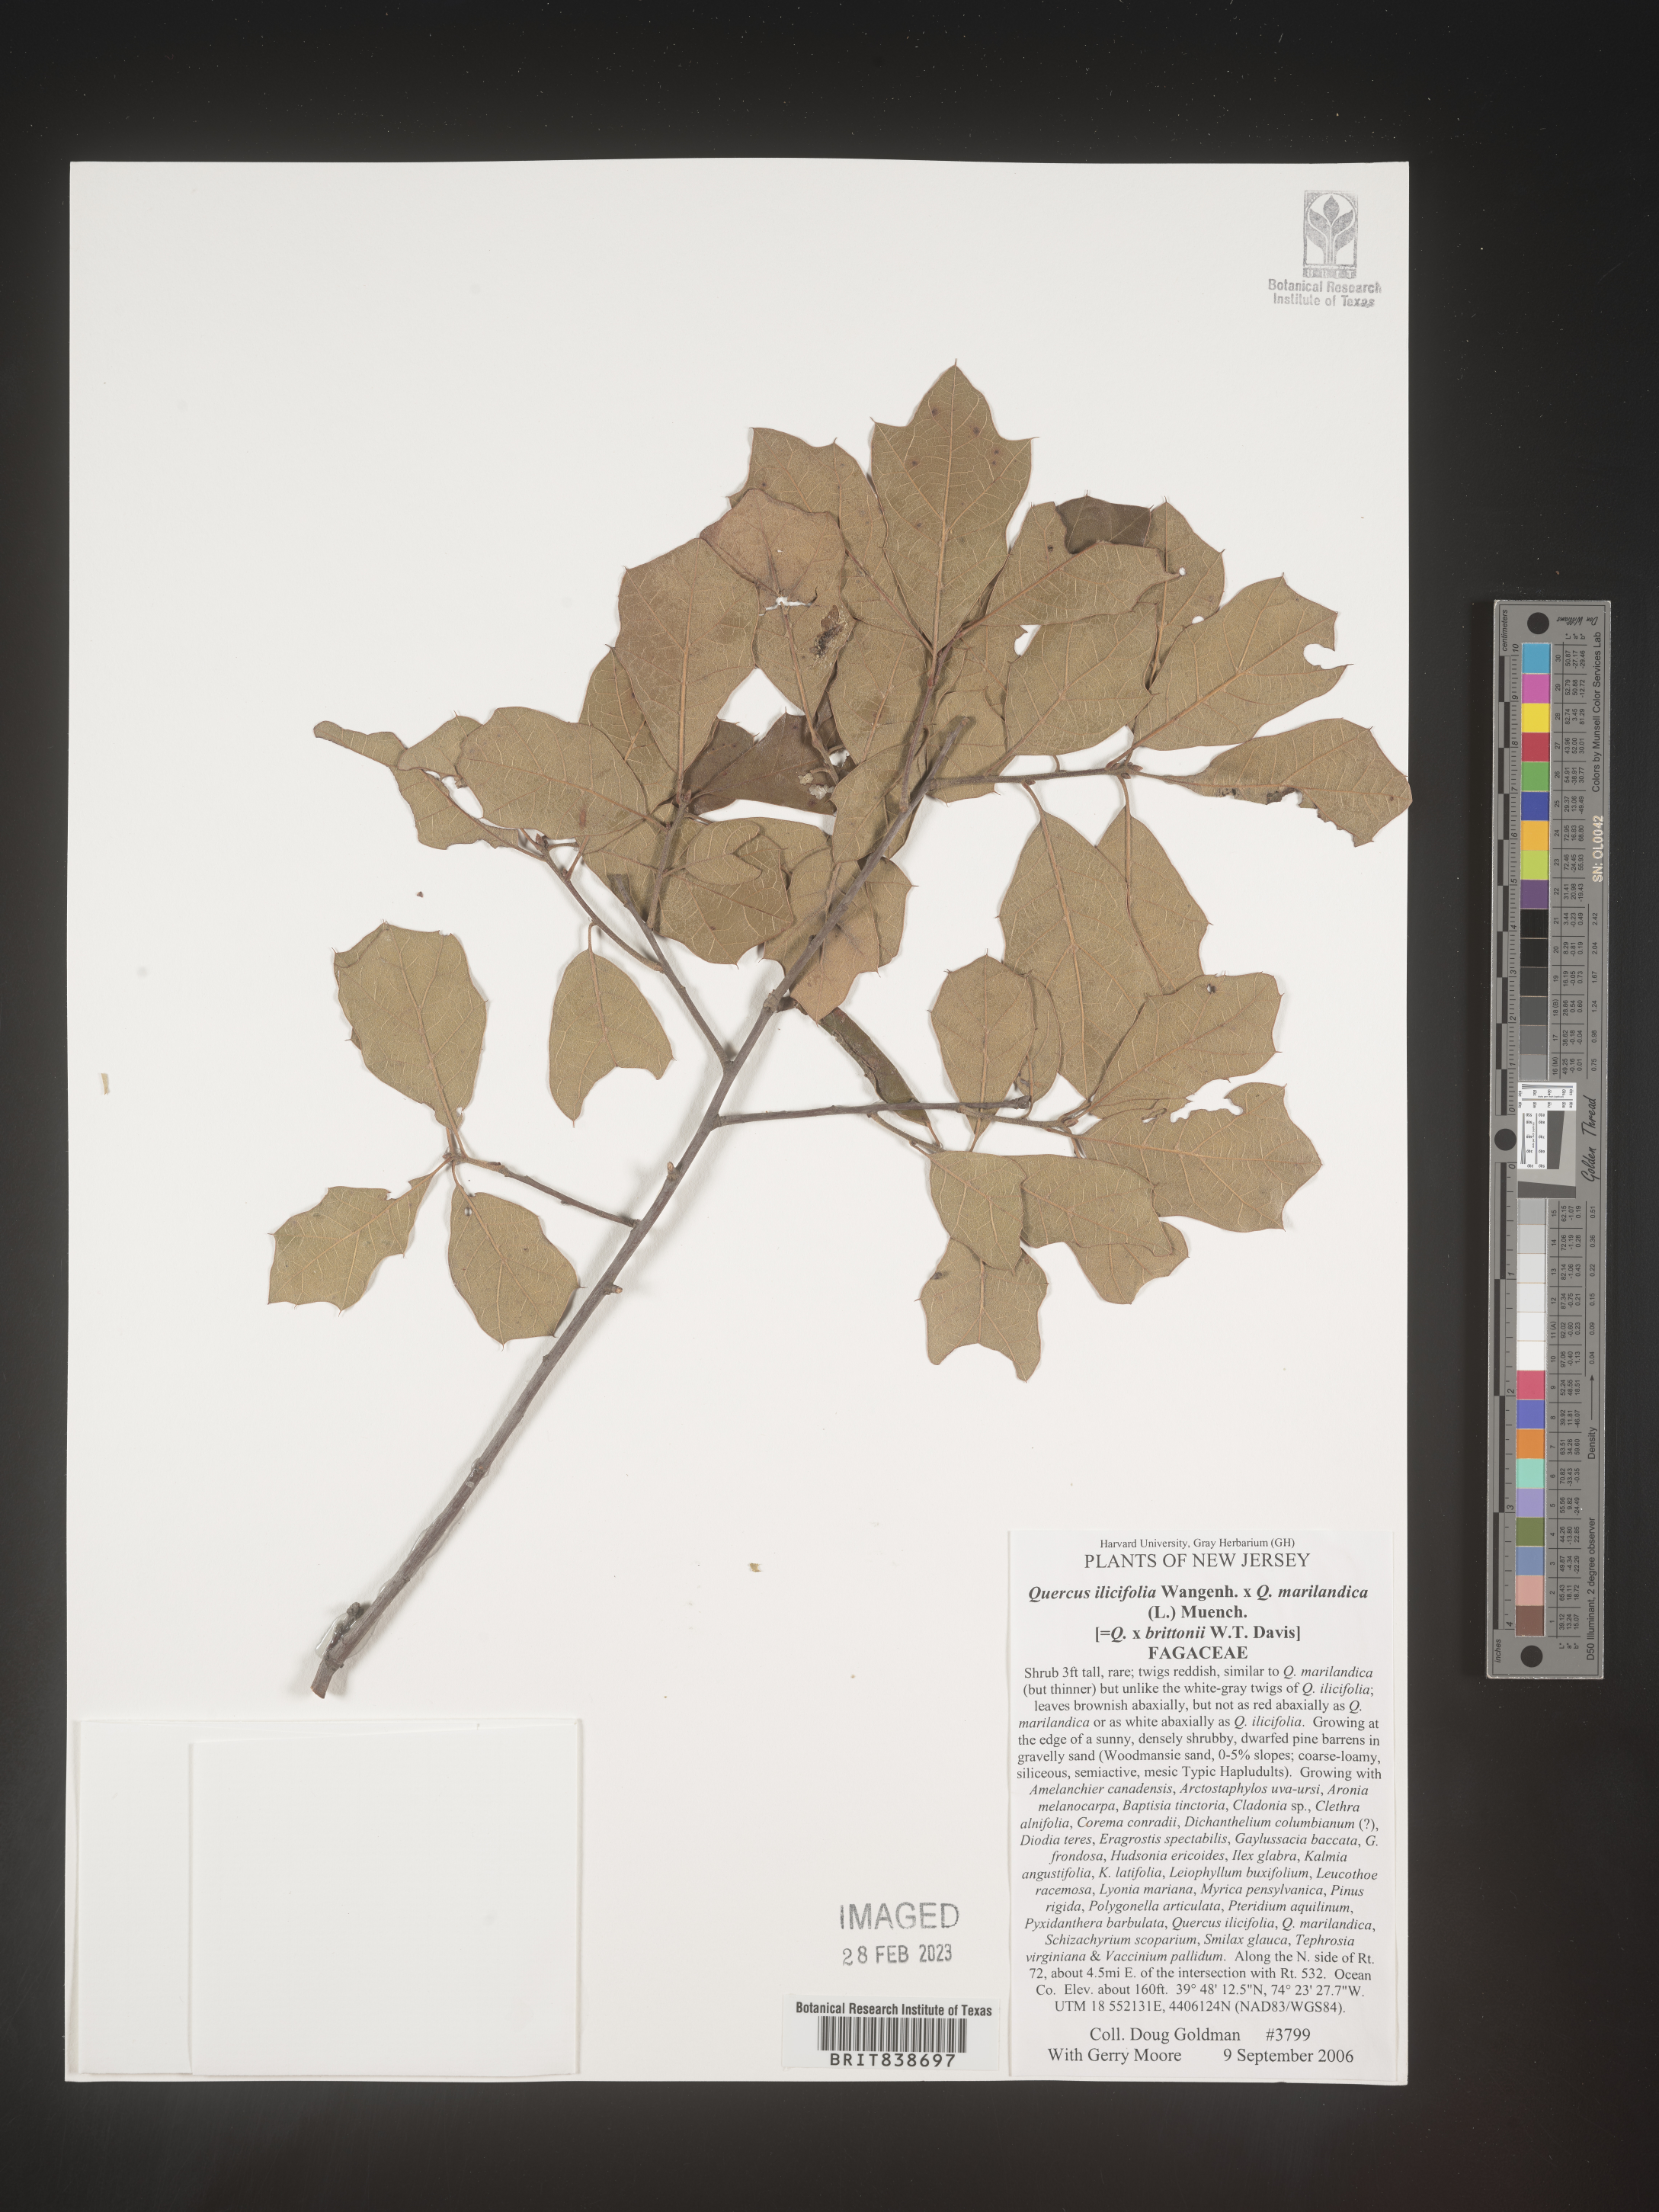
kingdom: Plantae
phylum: Tracheophyta
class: Magnoliopsida
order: Fagales
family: Fagaceae
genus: Quercus
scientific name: Quercus ilicifolia
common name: Bear oak
